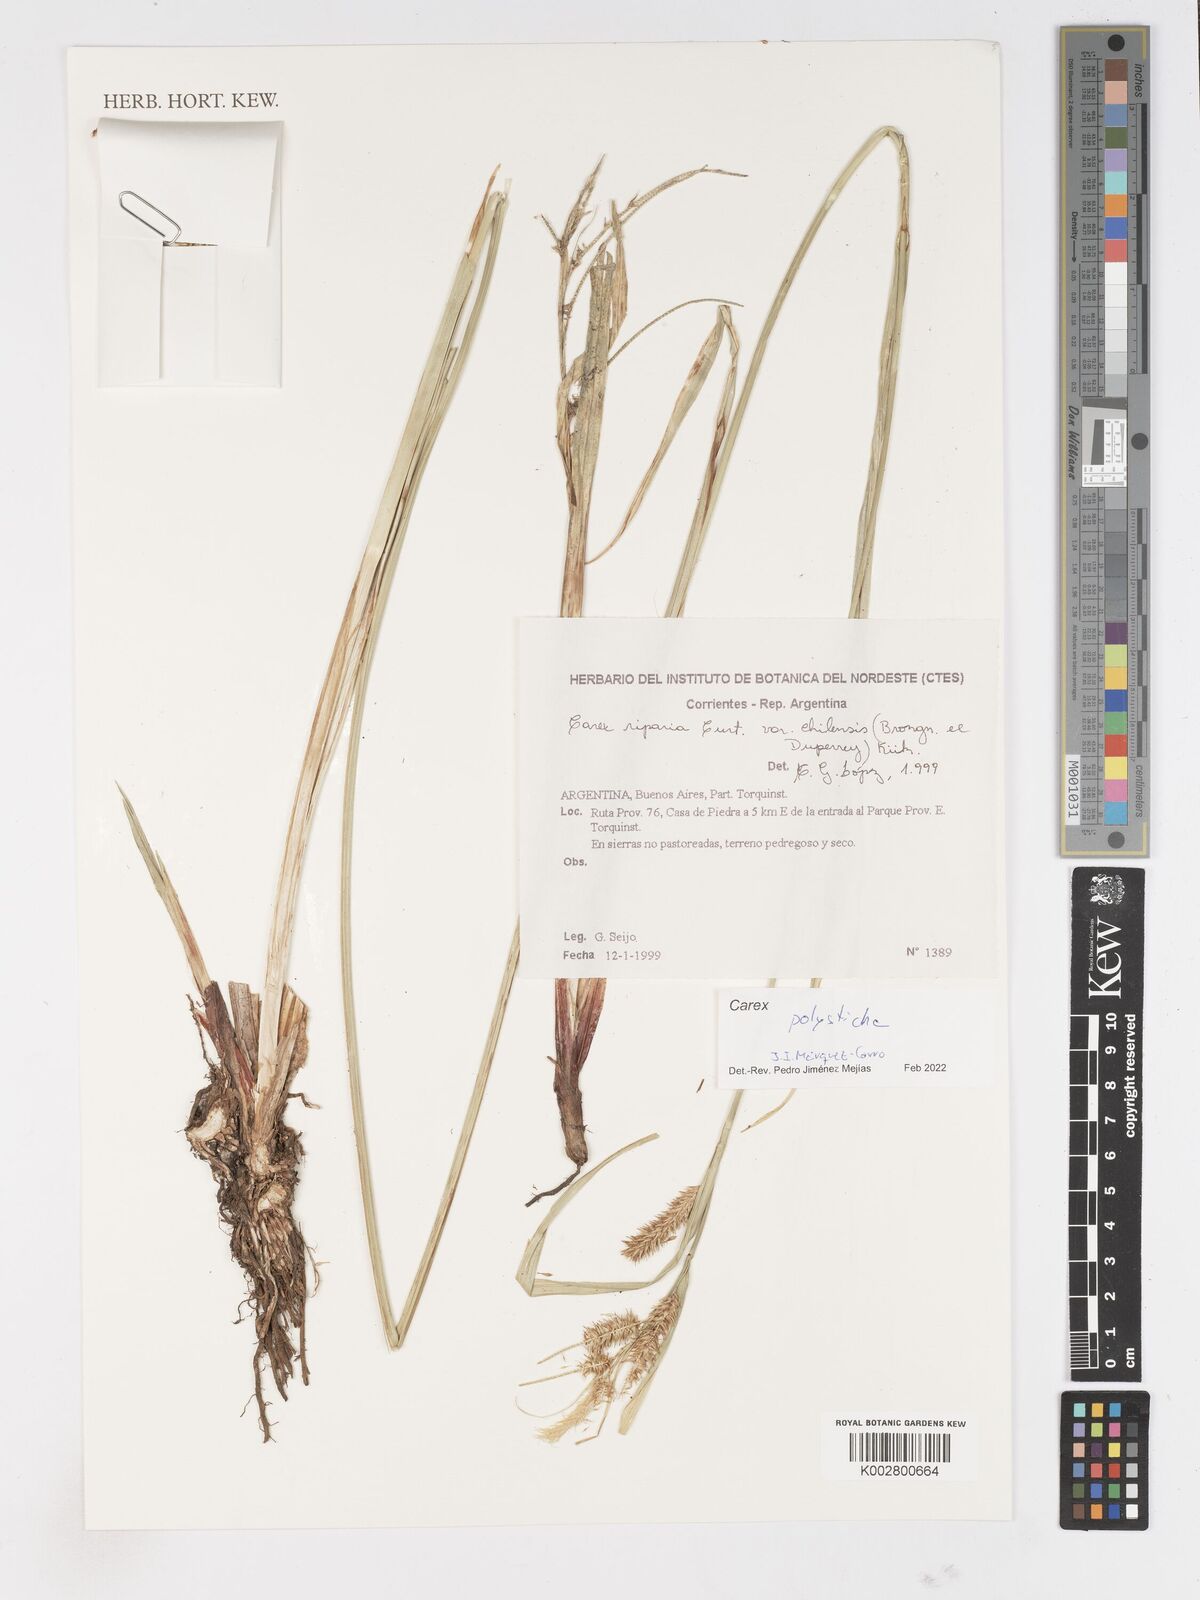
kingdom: Plantae
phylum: Tracheophyta
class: Liliopsida
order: Poales
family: Cyperaceae
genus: Carex
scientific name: Carex polysticha
